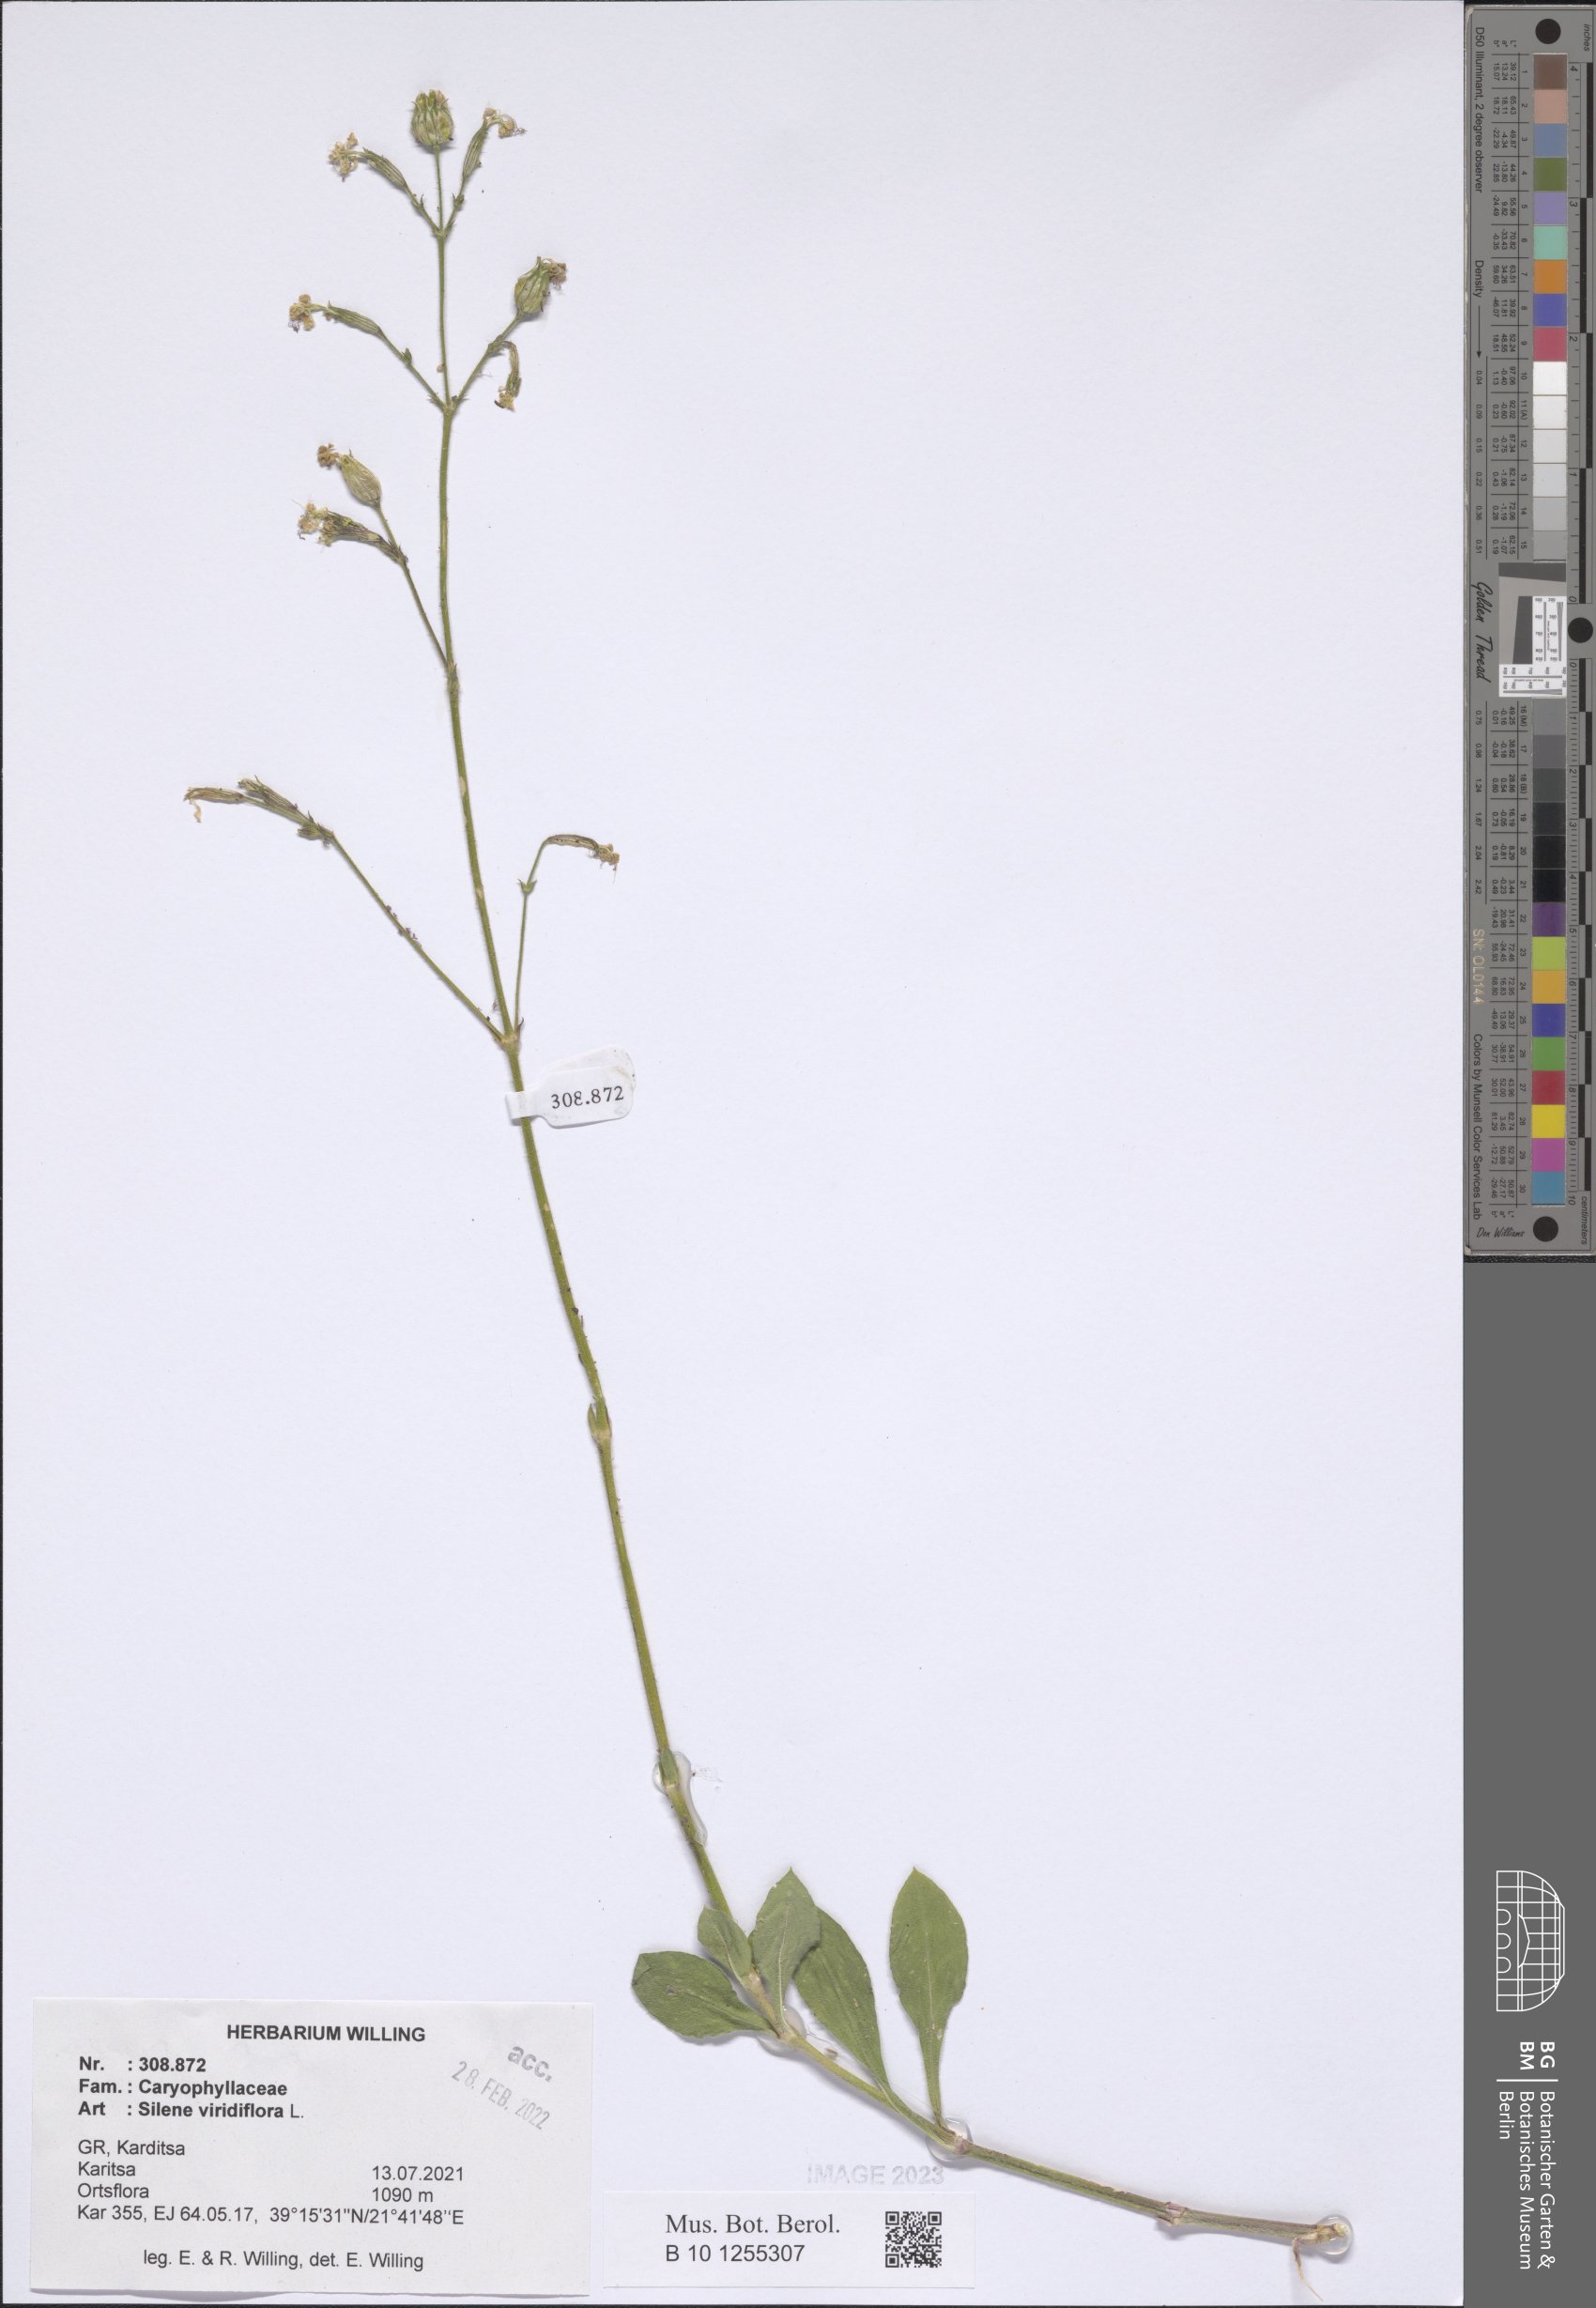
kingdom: Plantae
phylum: Tracheophyta
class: Magnoliopsida
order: Caryophyllales
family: Caryophyllaceae
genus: Silene
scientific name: Silene viridiflora
